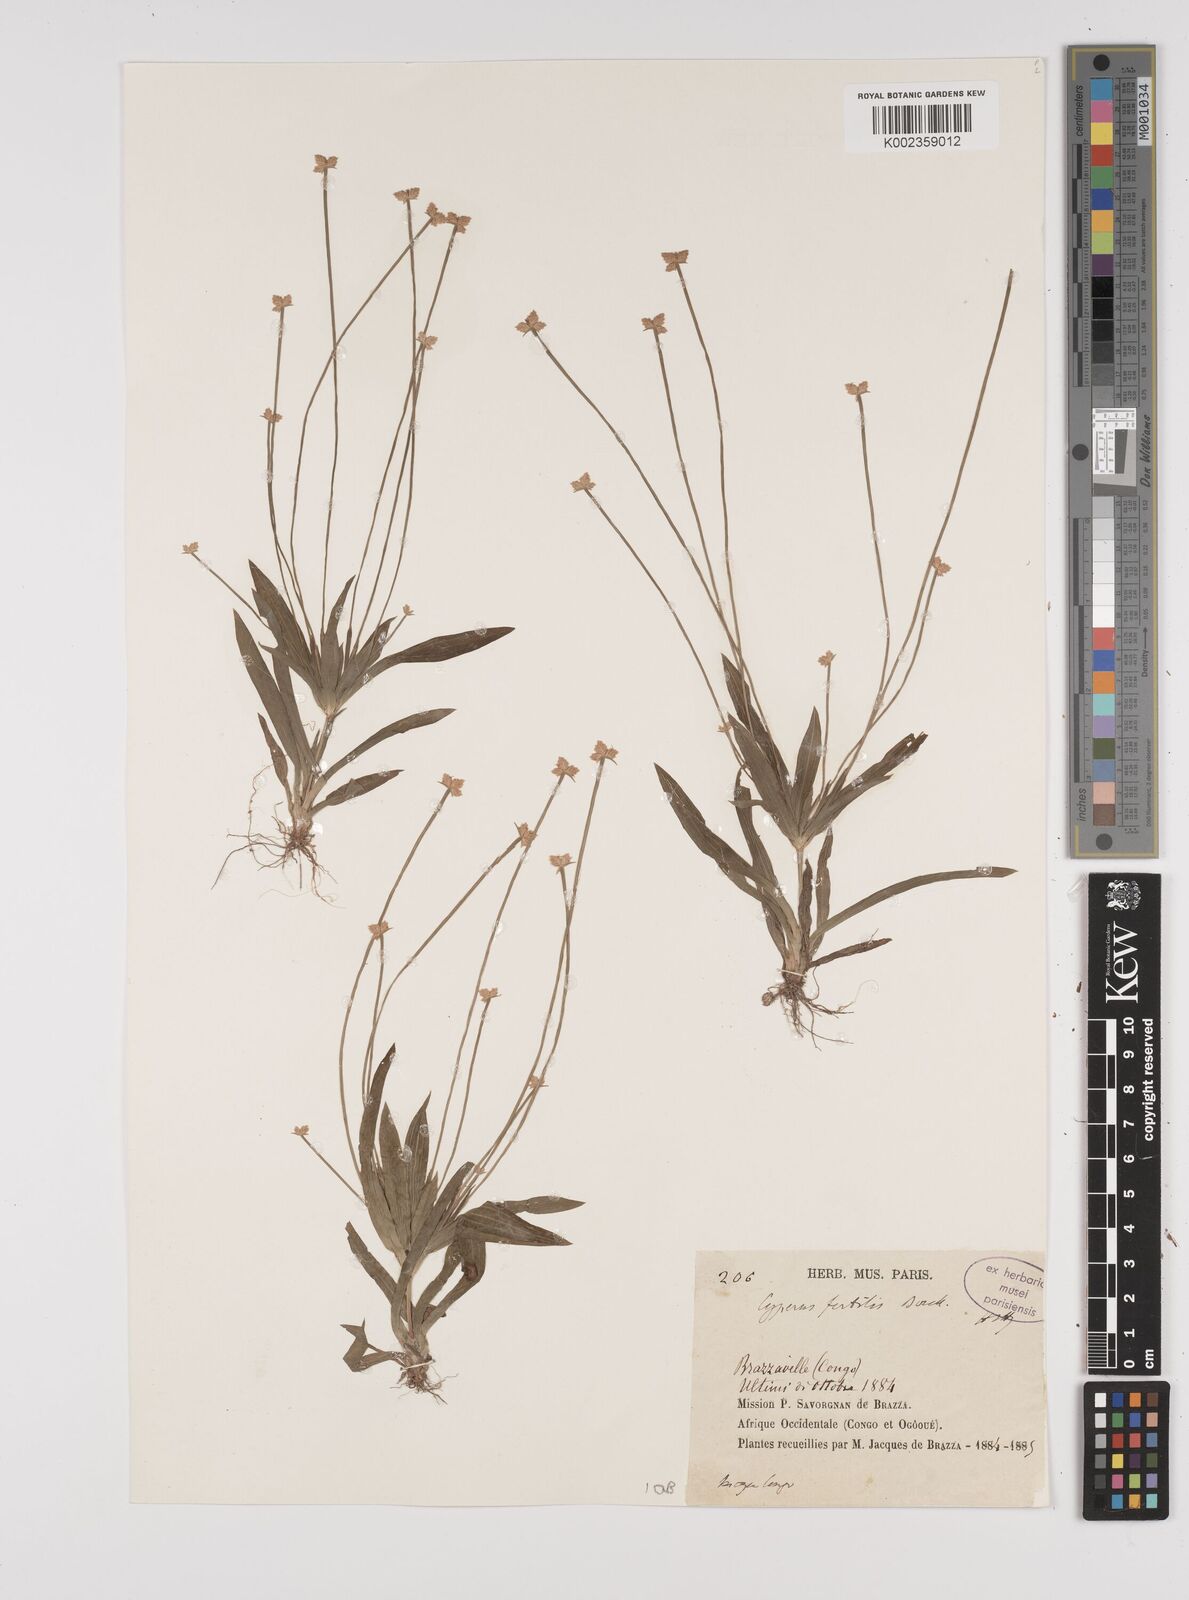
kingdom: Plantae
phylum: Tracheophyta
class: Liliopsida
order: Poales
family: Cyperaceae
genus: Cyperus
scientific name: Cyperus fertilis
